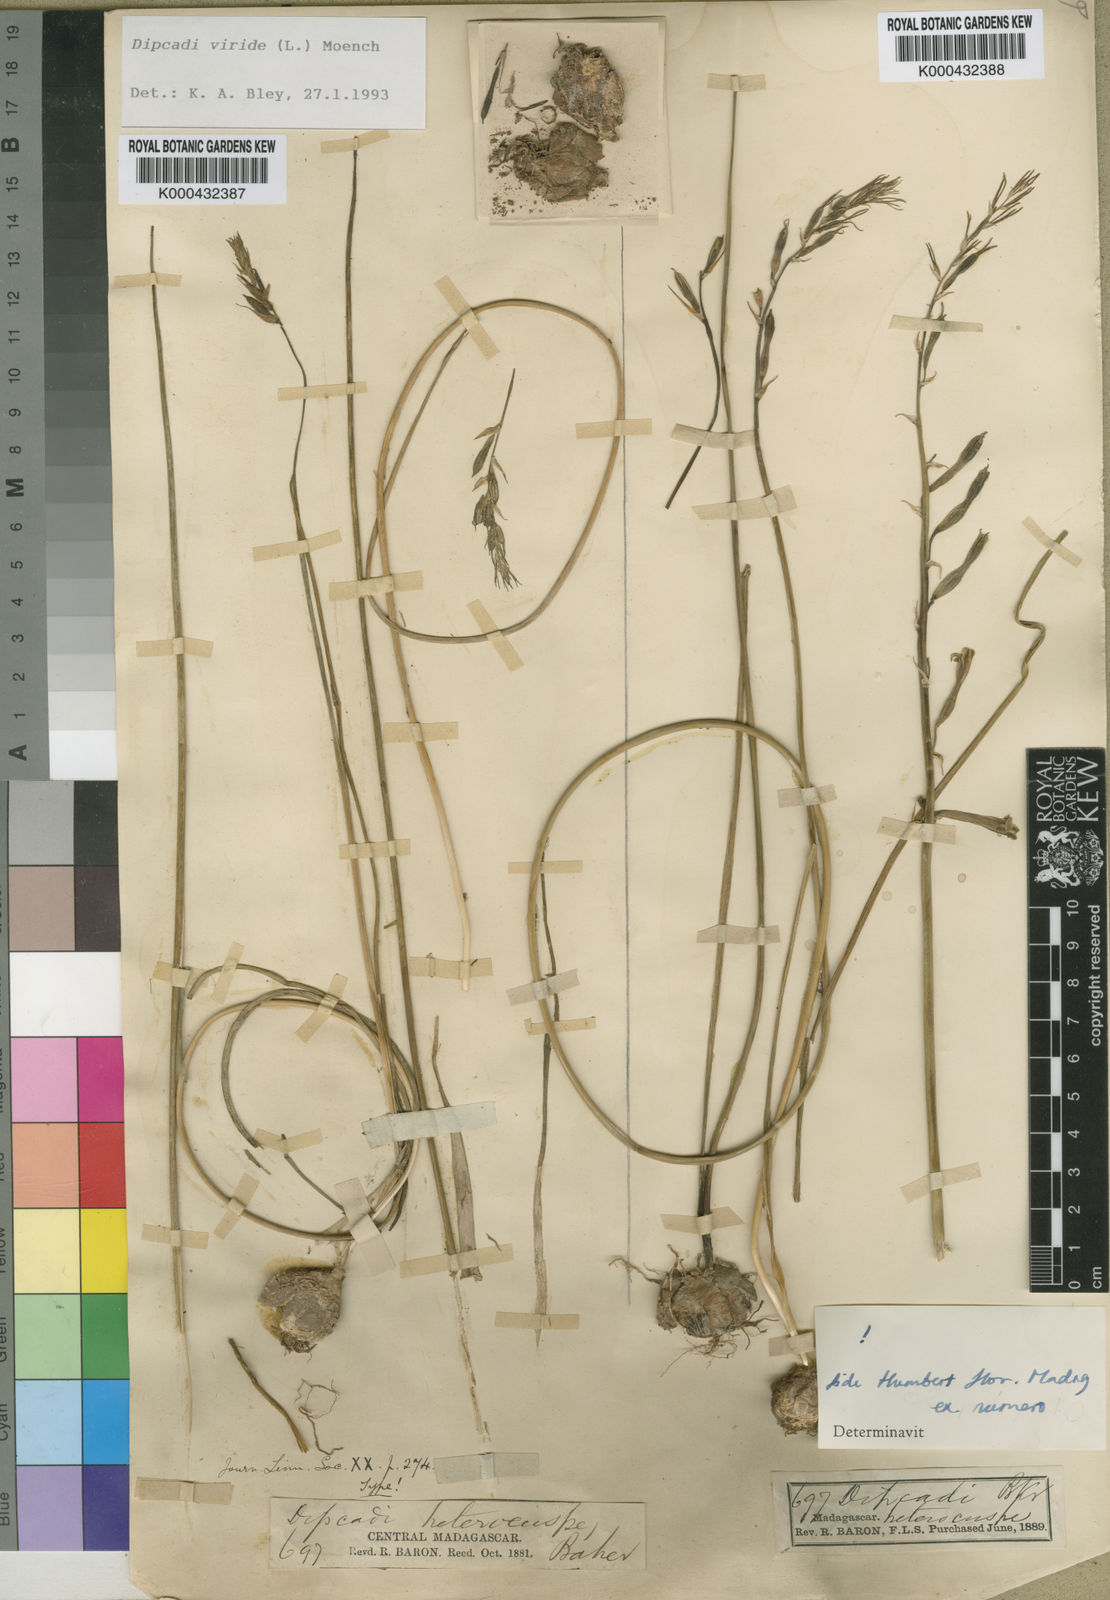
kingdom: Plantae
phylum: Tracheophyta
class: Liliopsida
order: Asparagales
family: Asparagaceae
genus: Dipcadi
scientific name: Dipcadi viride
